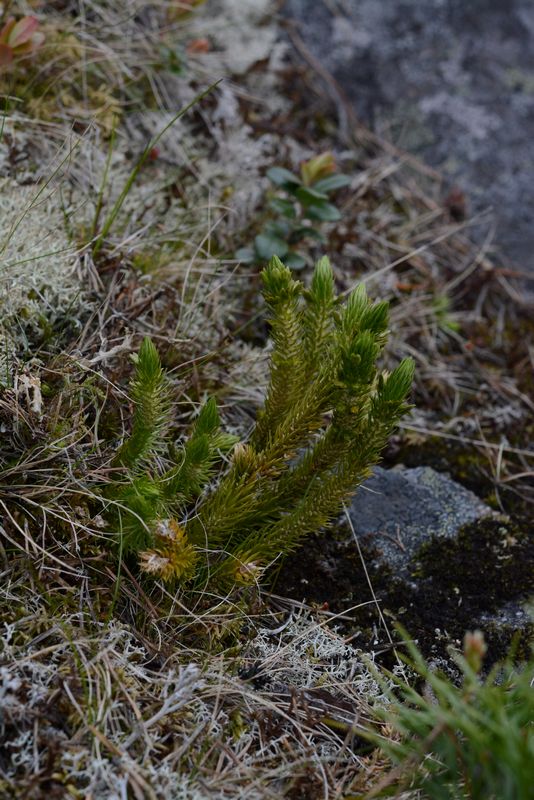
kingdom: Plantae
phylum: Tracheophyta
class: Lycopodiopsida
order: Lycopodiales
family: Lycopodiaceae
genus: Huperzia
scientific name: Huperzia selago
